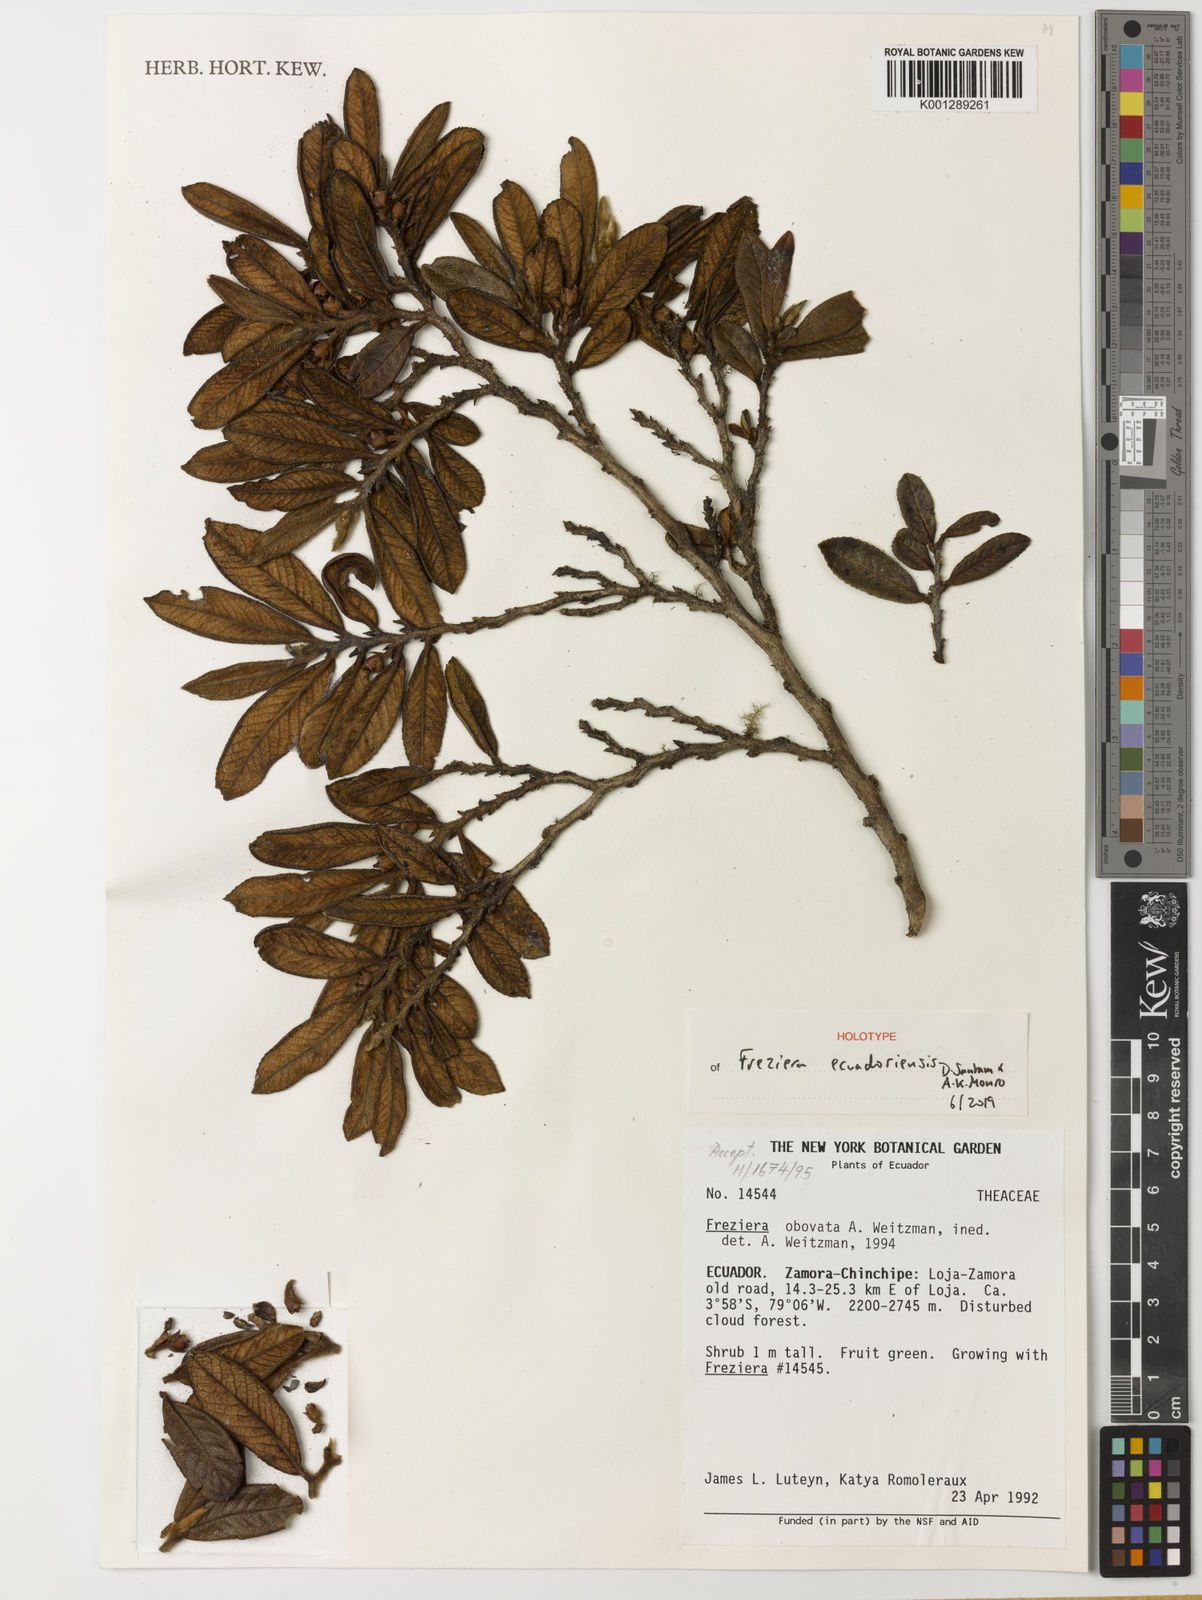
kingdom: Plantae
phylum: Tracheophyta
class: Magnoliopsida
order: Ericales
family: Pentaphylacaceae
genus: Freziera
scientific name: Freziera
